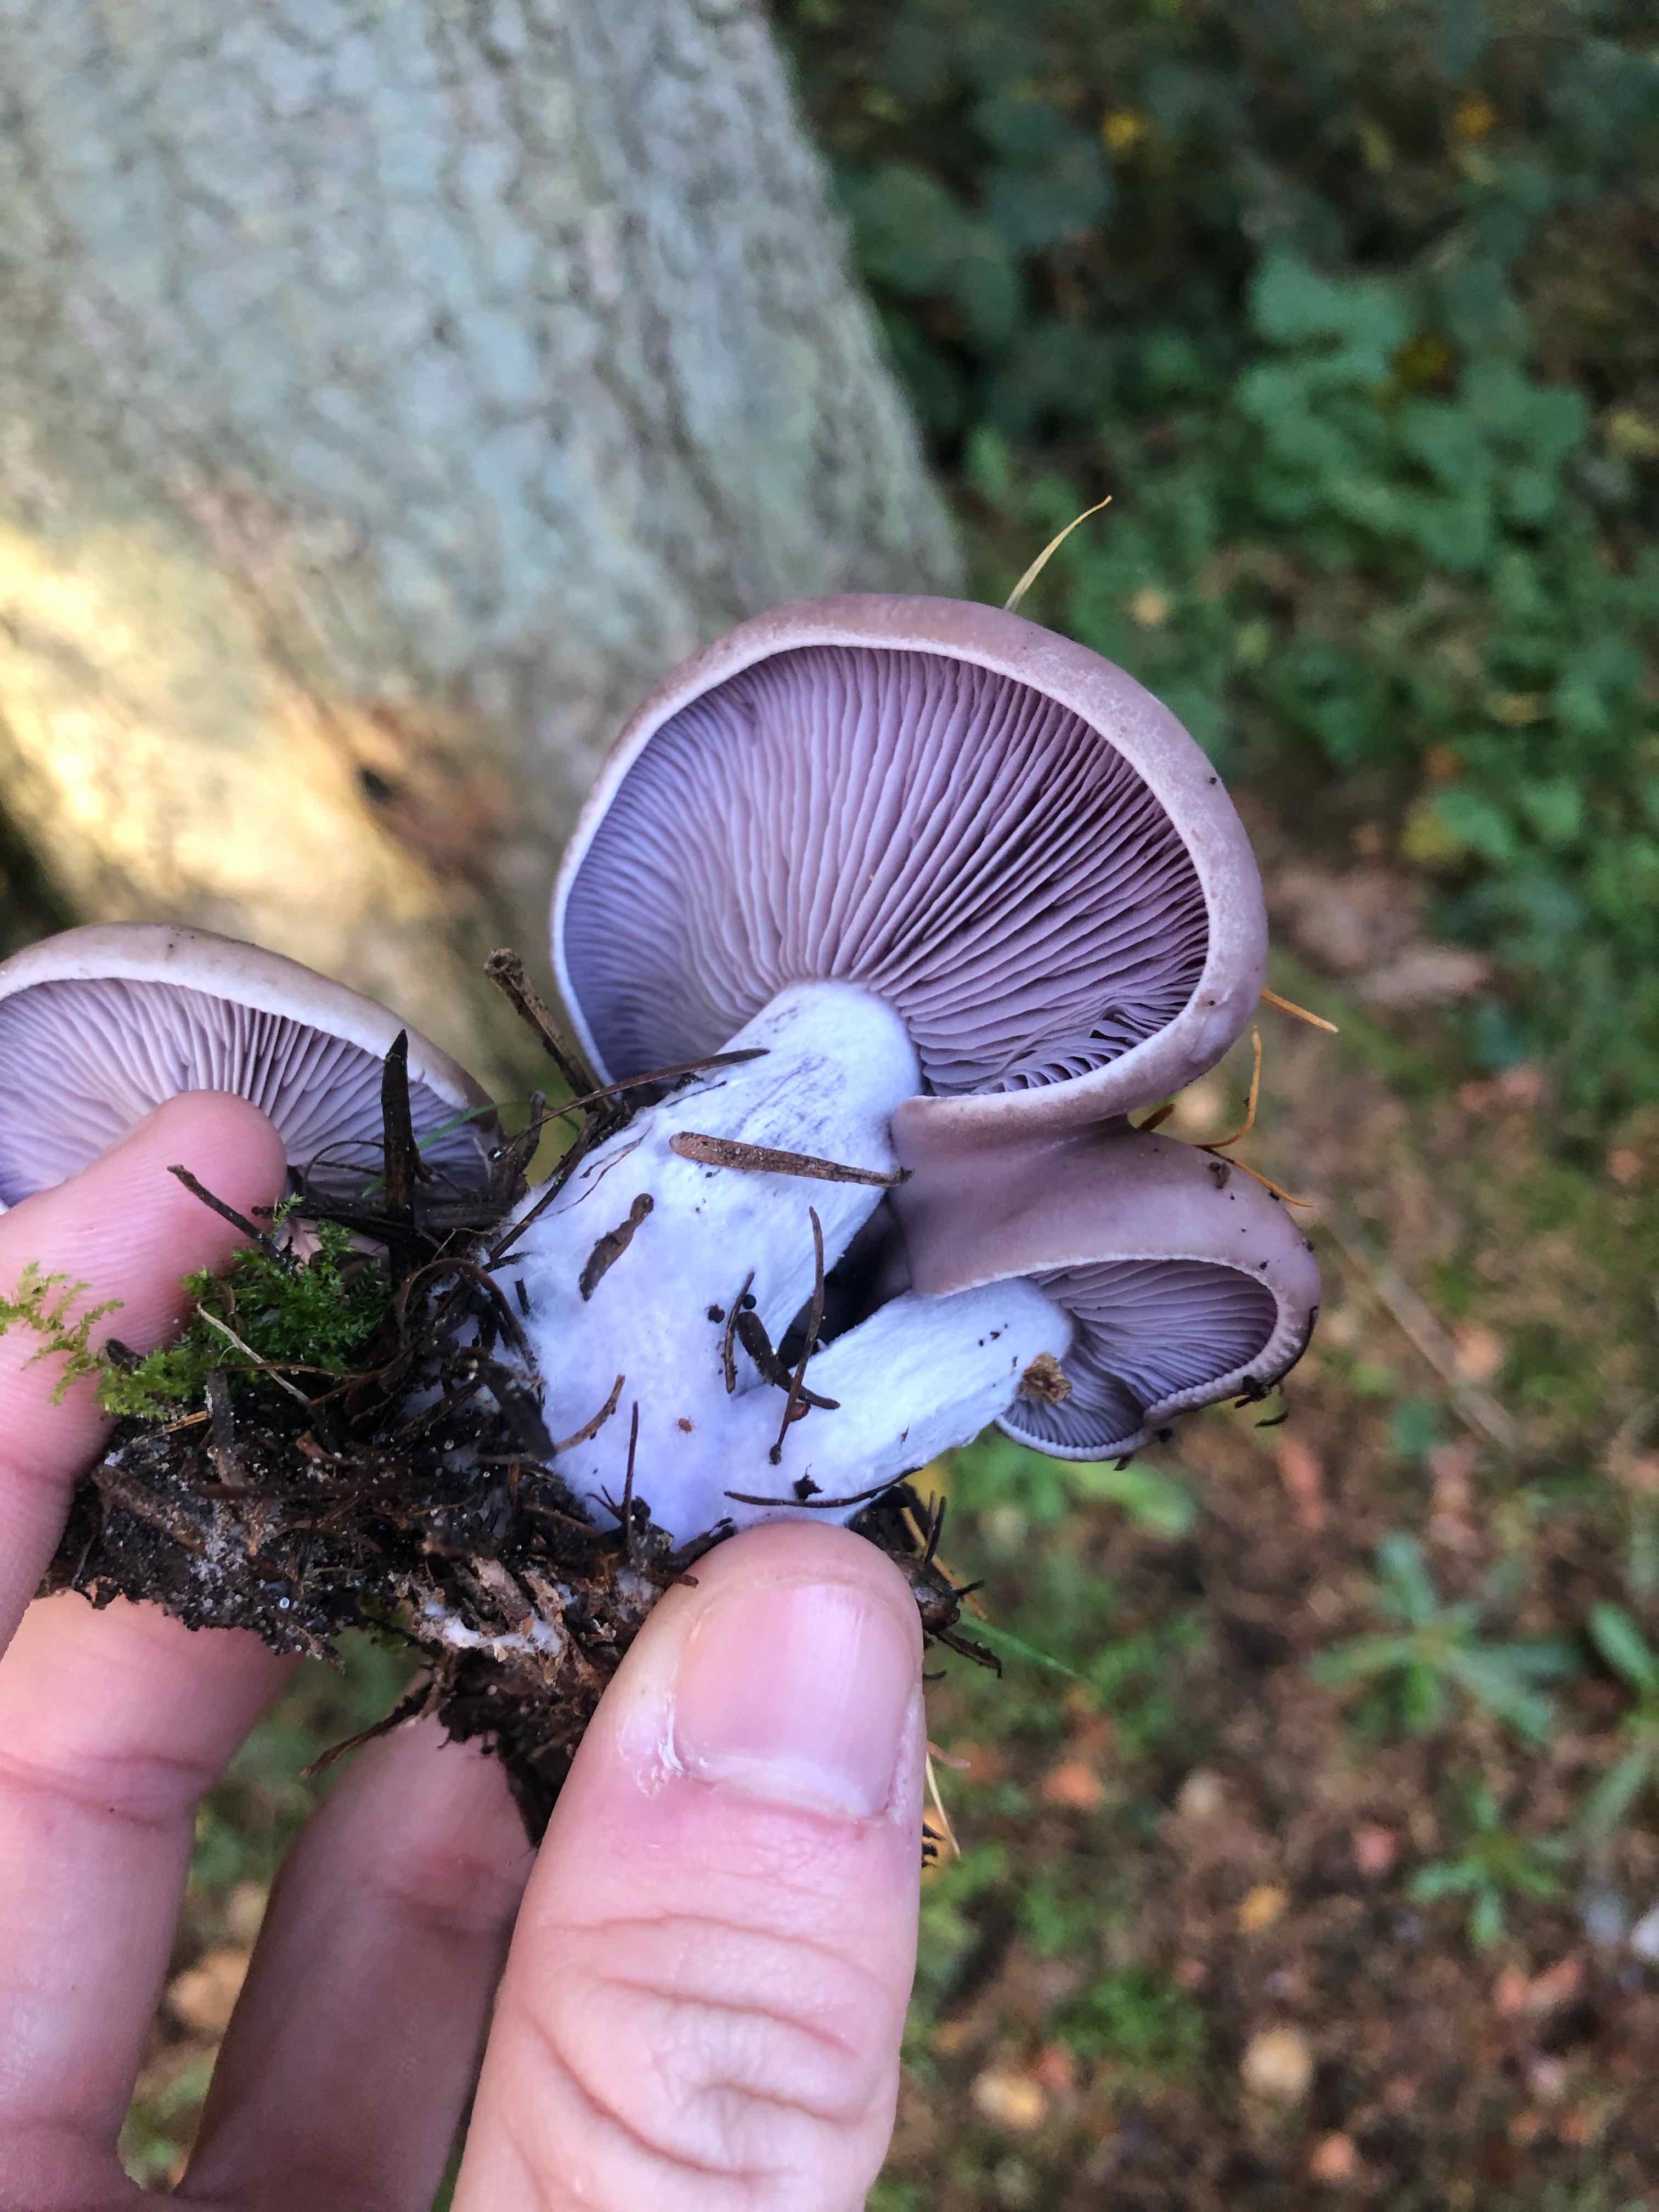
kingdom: Fungi
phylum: Basidiomycota
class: Agaricomycetes
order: Agaricales
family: Tricholomataceae
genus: Lepista
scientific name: Lepista nuda
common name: violet hekseringshat
